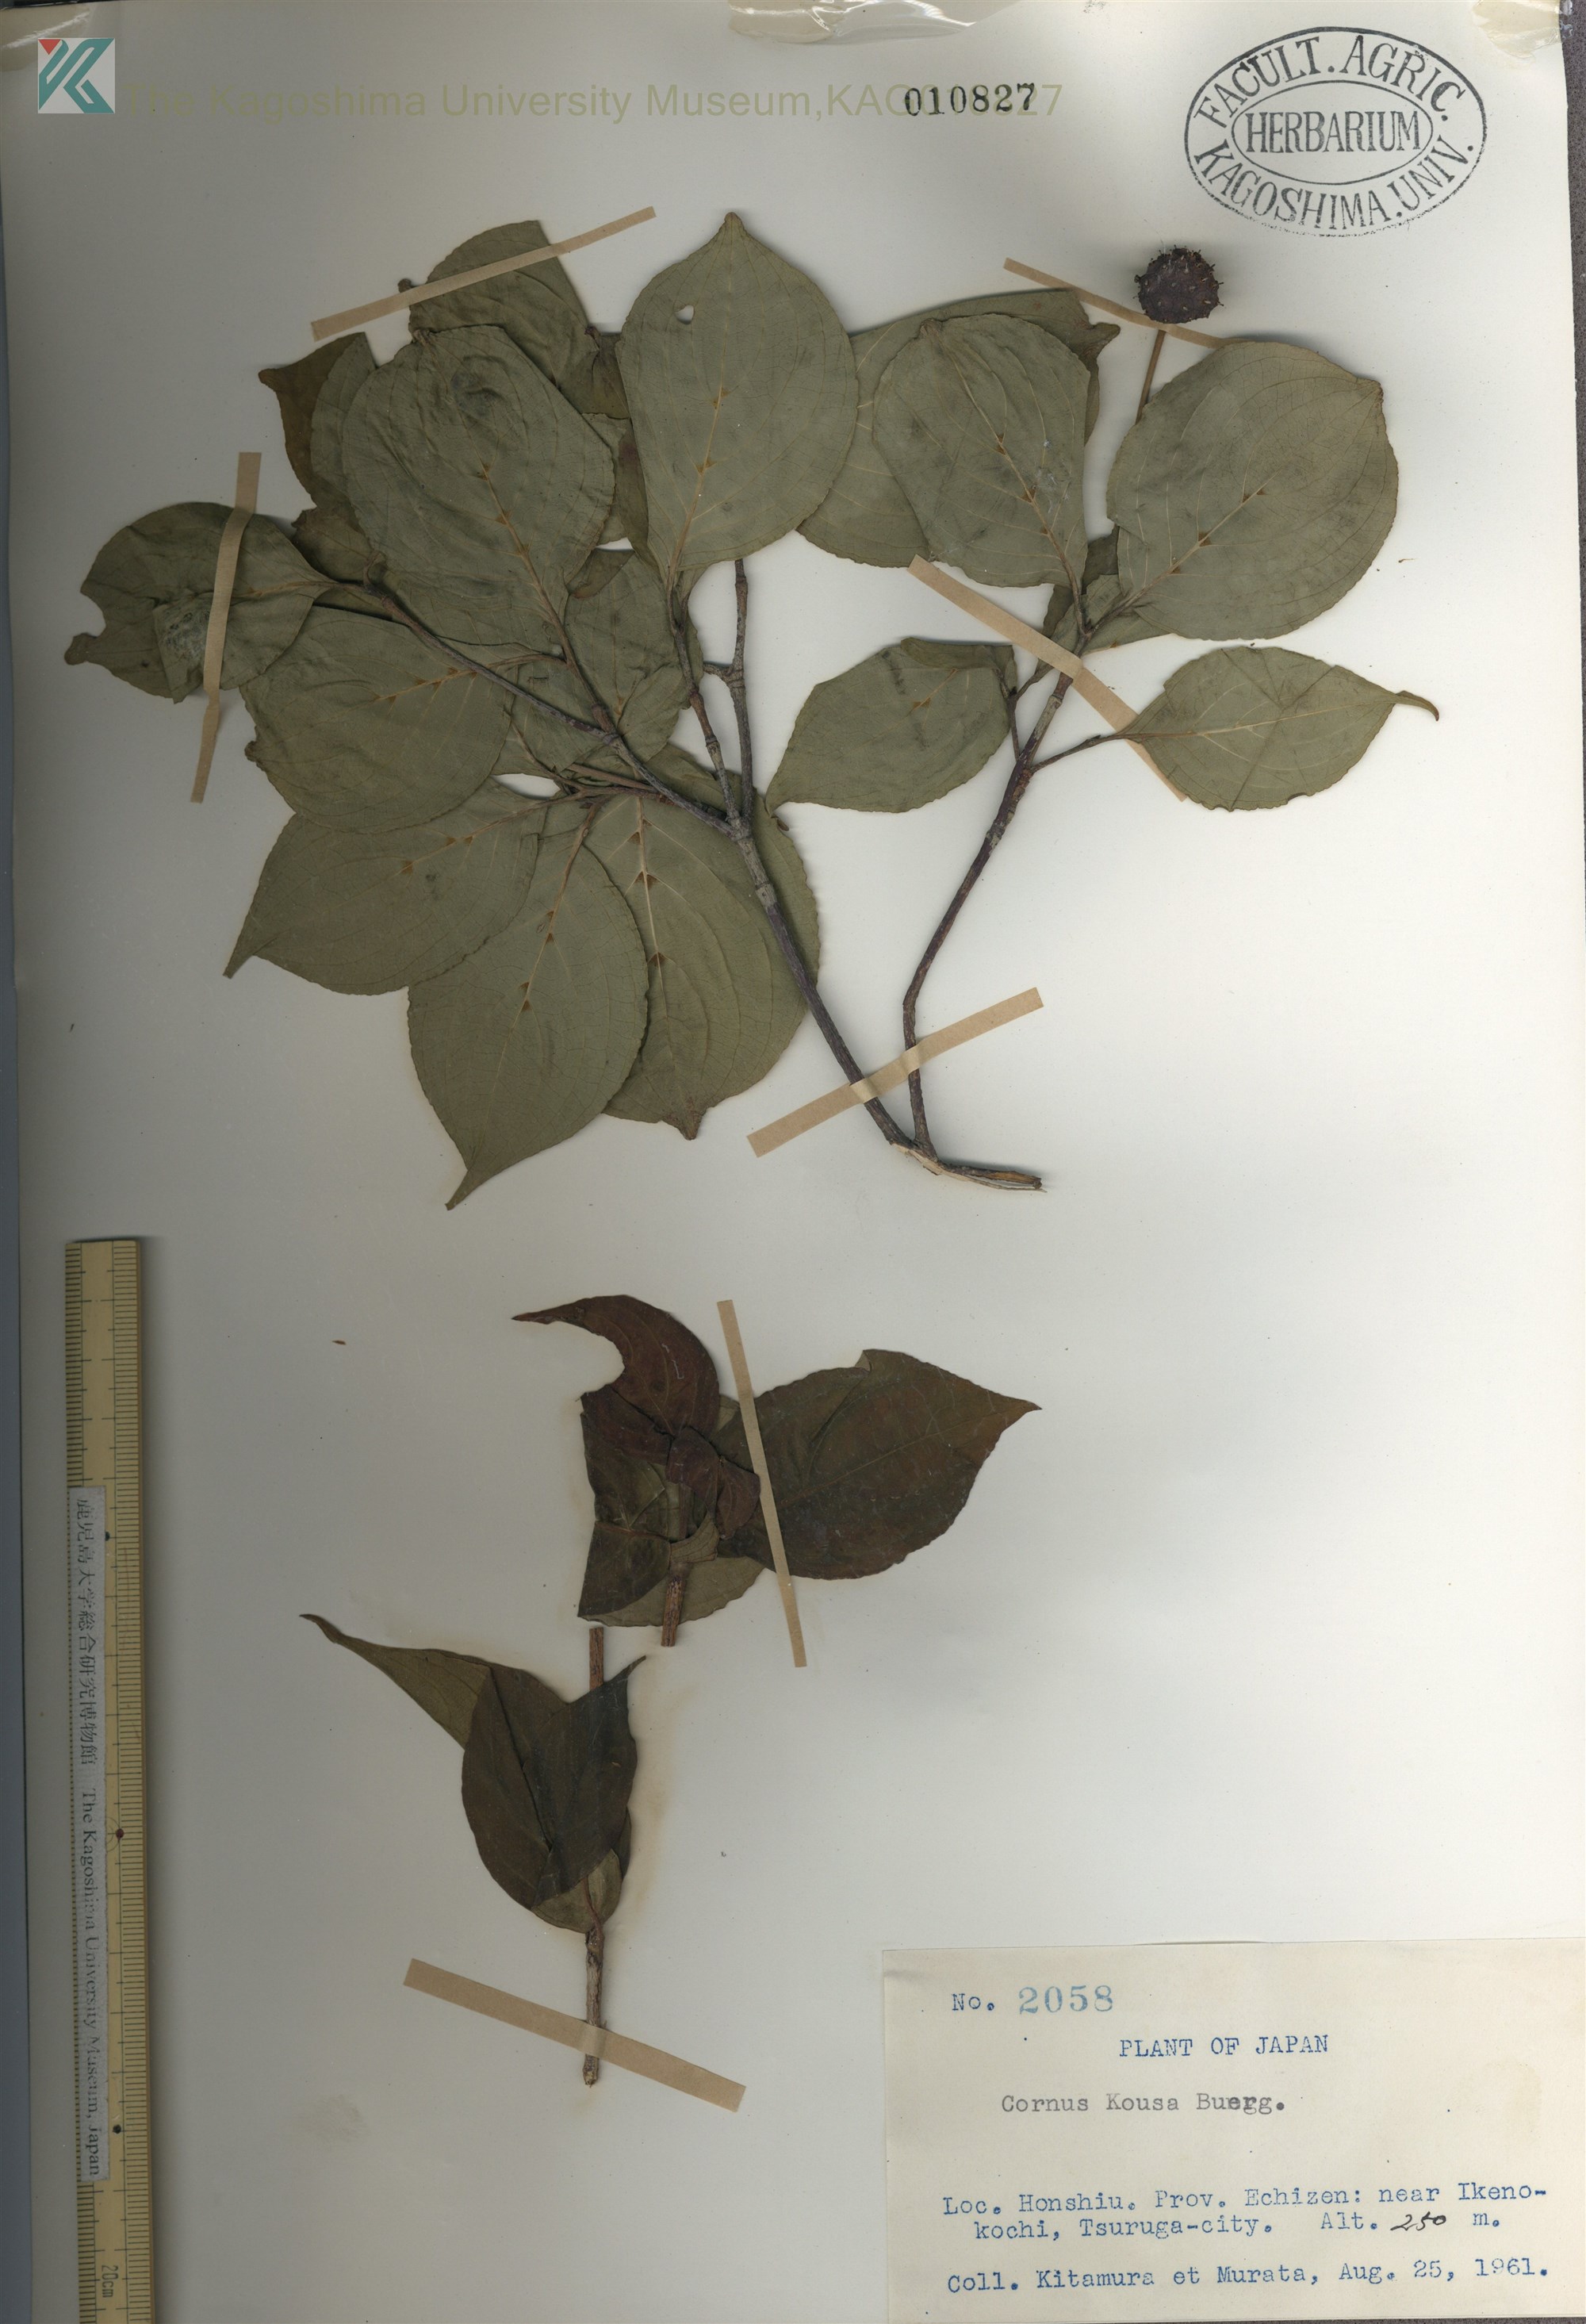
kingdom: Plantae
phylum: Tracheophyta
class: Magnoliopsida
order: Cornales
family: Cornaceae
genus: Cornus
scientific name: Cornus kousa
